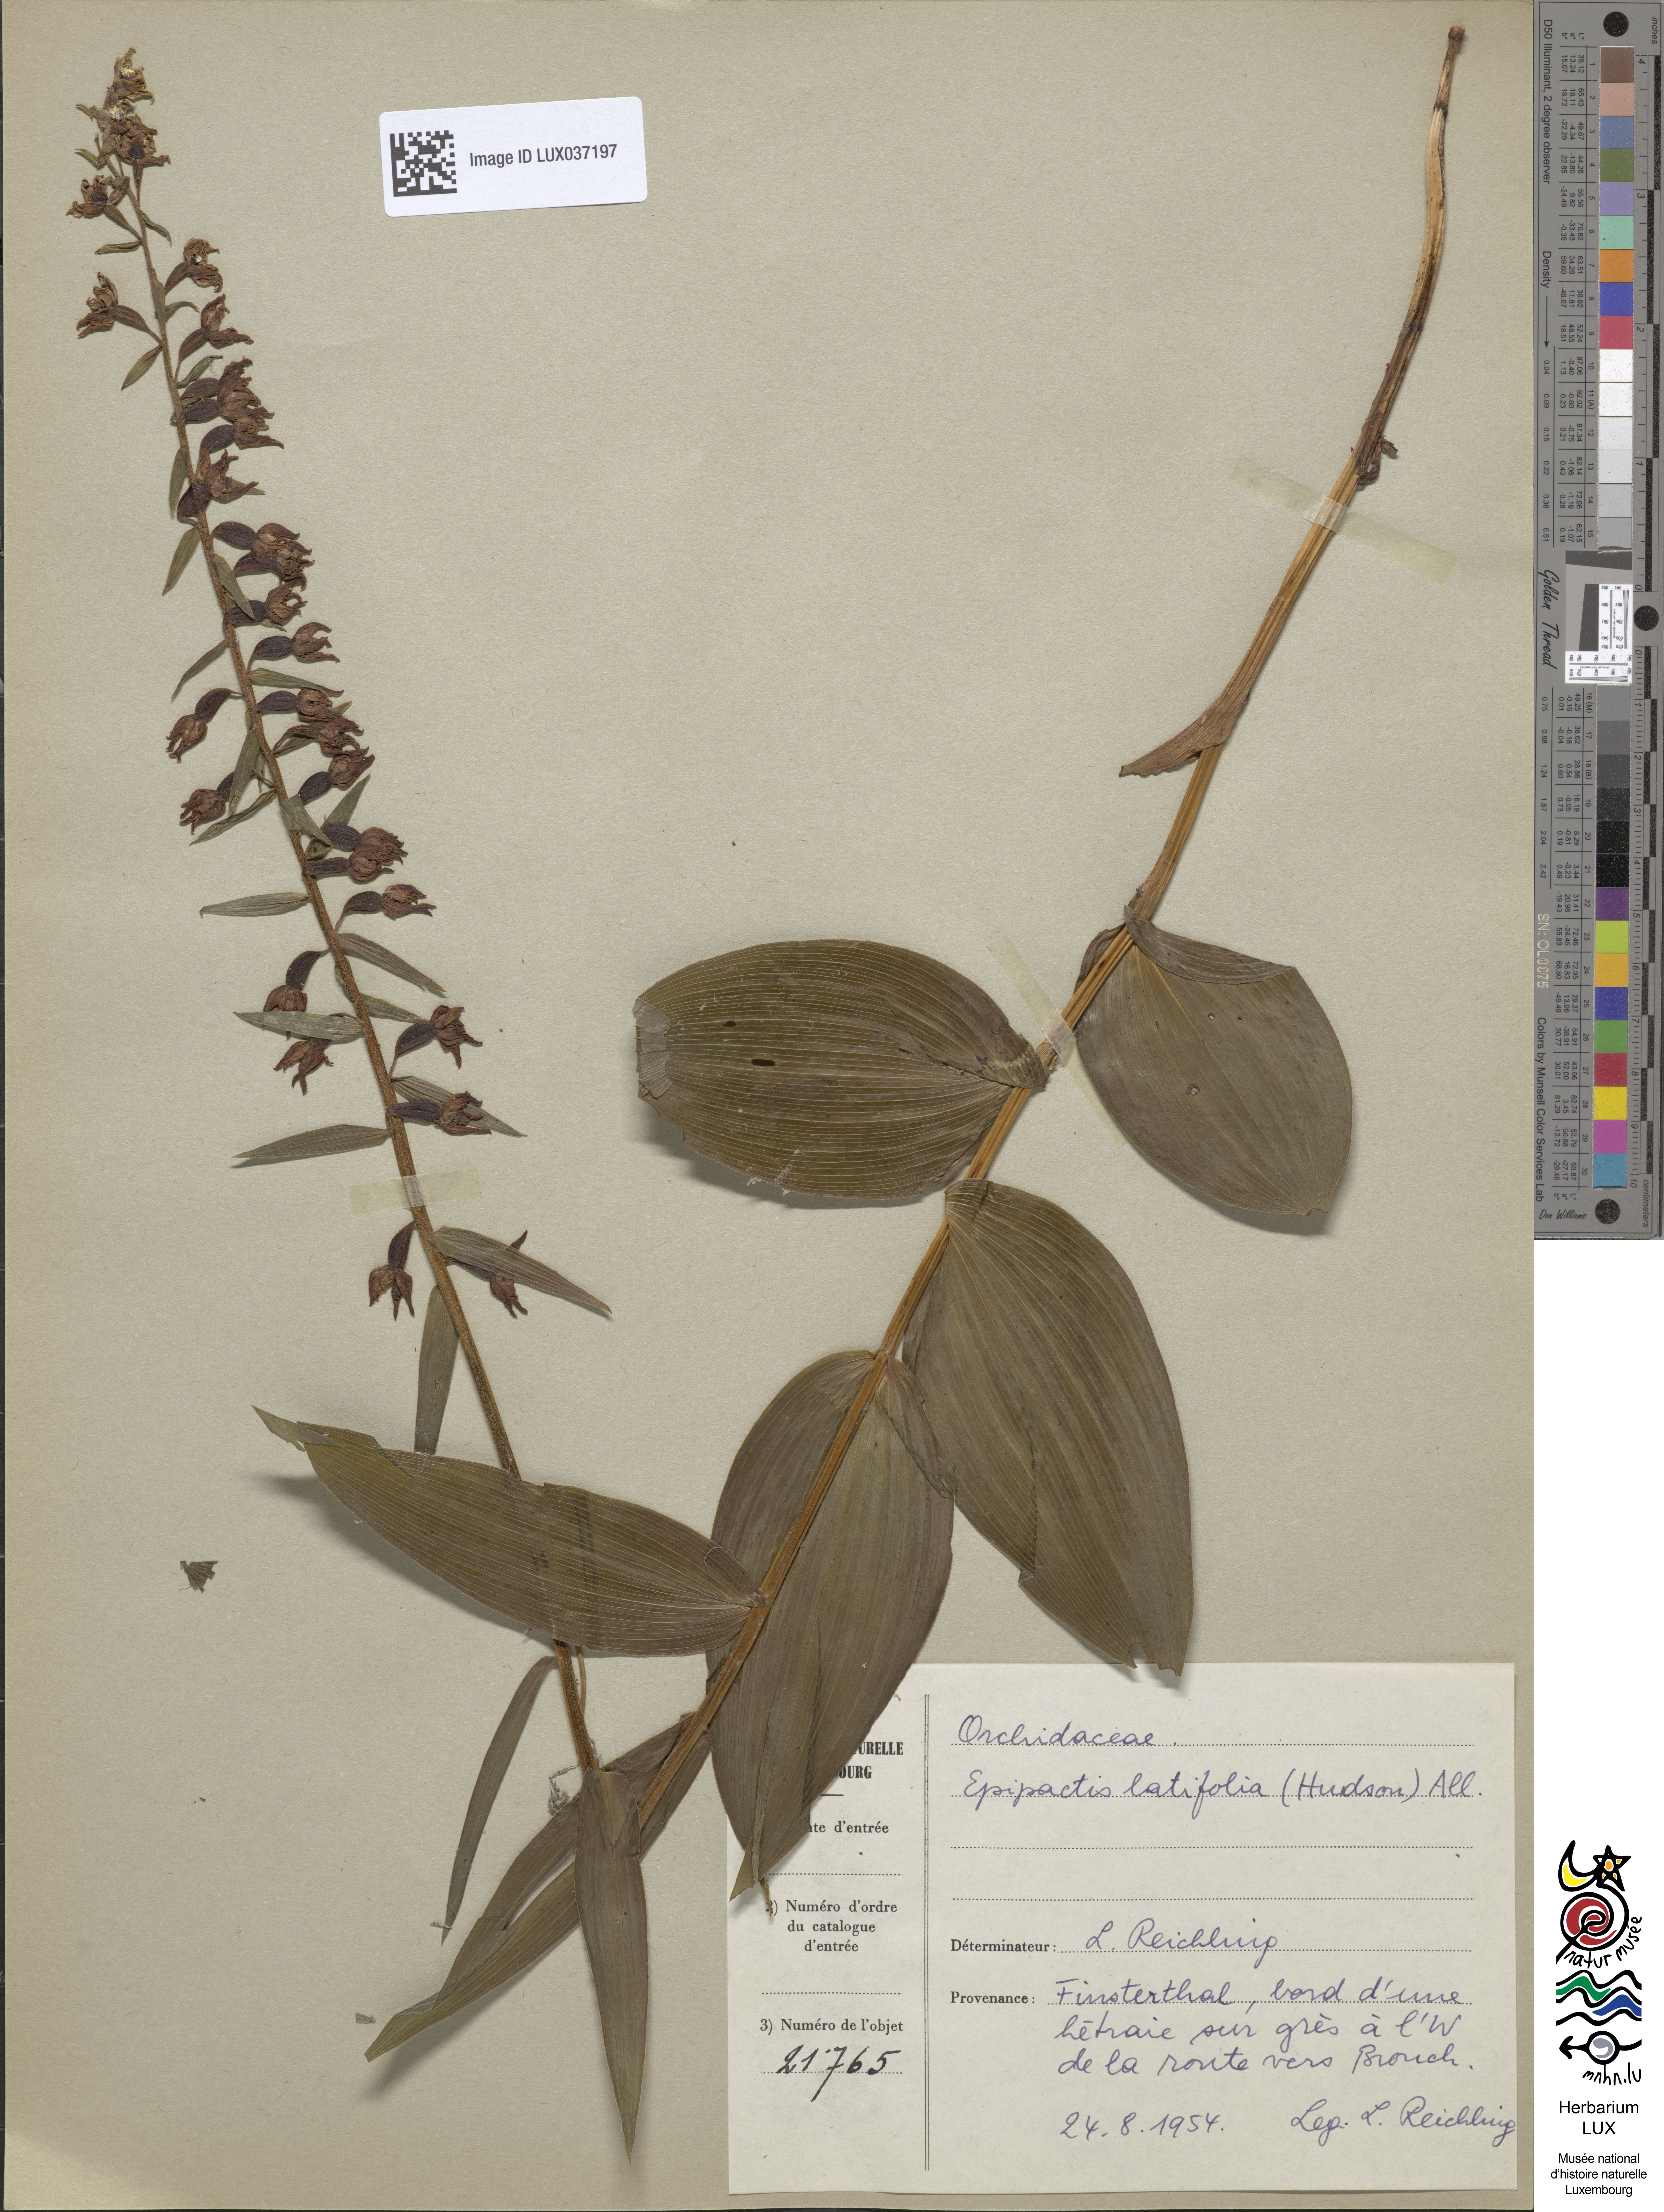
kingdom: Plantae
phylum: Tracheophyta
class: Liliopsida
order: Asparagales
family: Orchidaceae
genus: Epipactis
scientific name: Epipactis helleborine
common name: Broad-leaved helleborine
